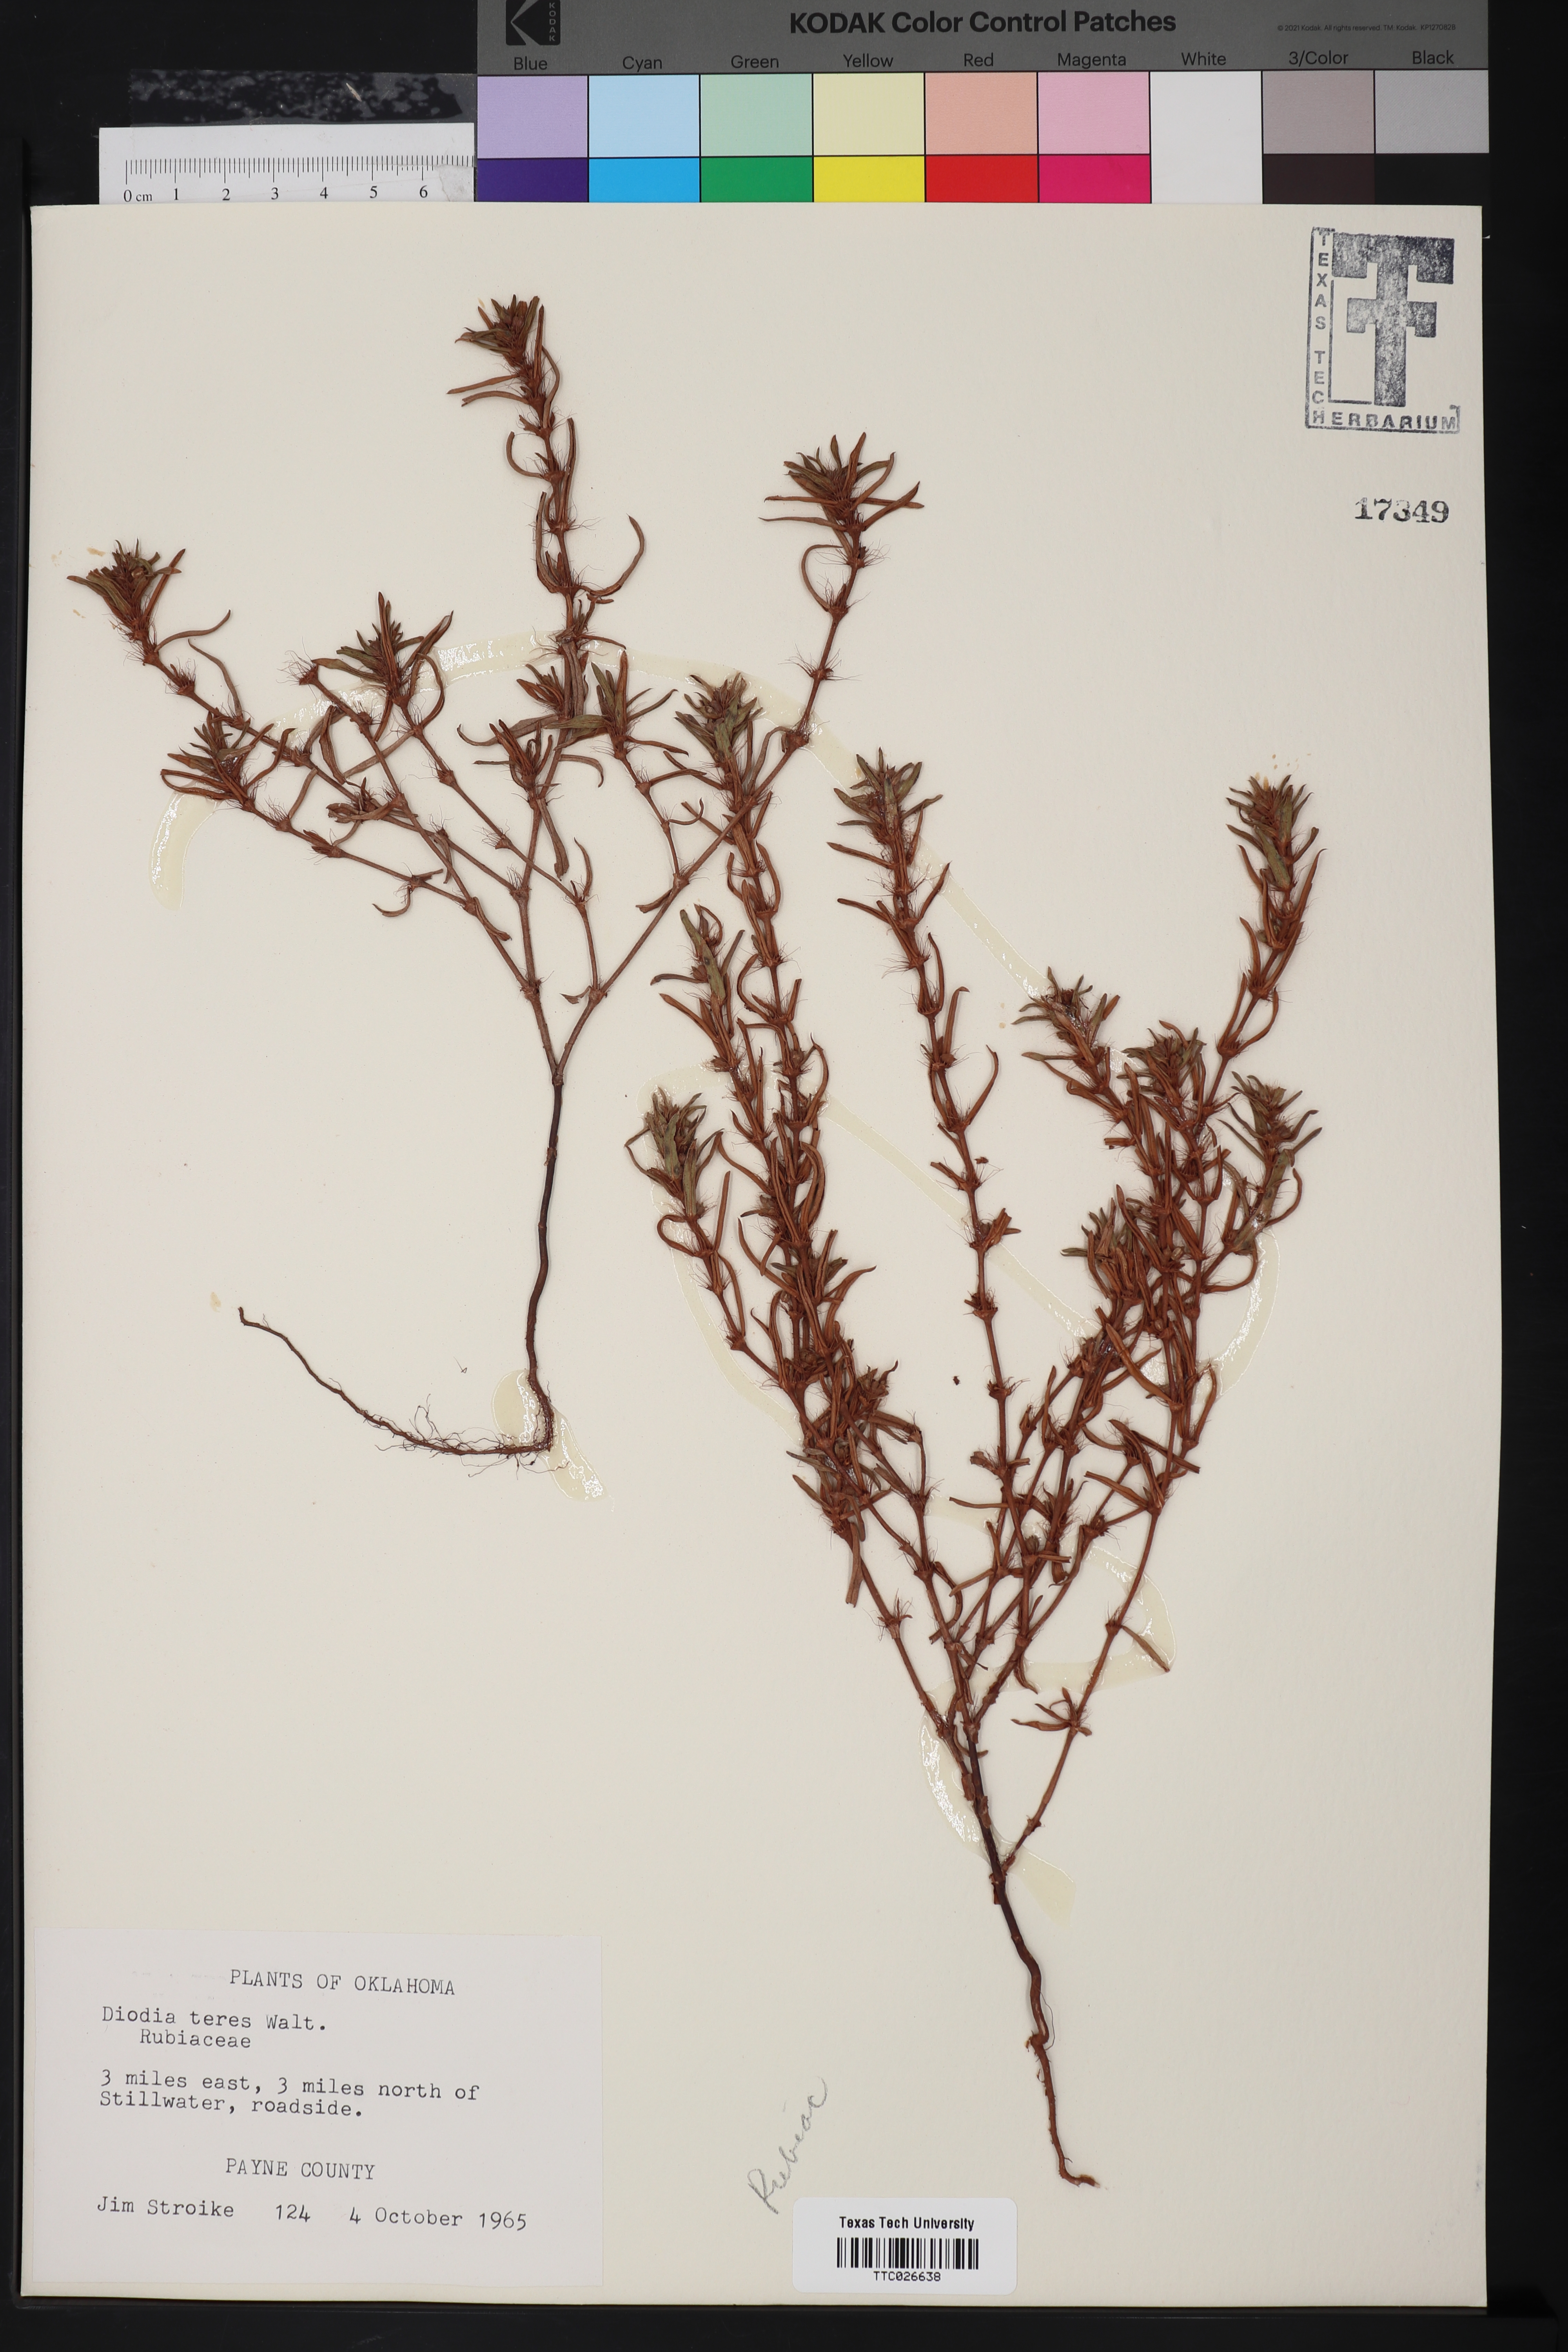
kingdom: Plantae
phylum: Tracheophyta
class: Magnoliopsida
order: Gentianales
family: Rubiaceae
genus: Hexasepalum
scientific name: Hexasepalum teres
